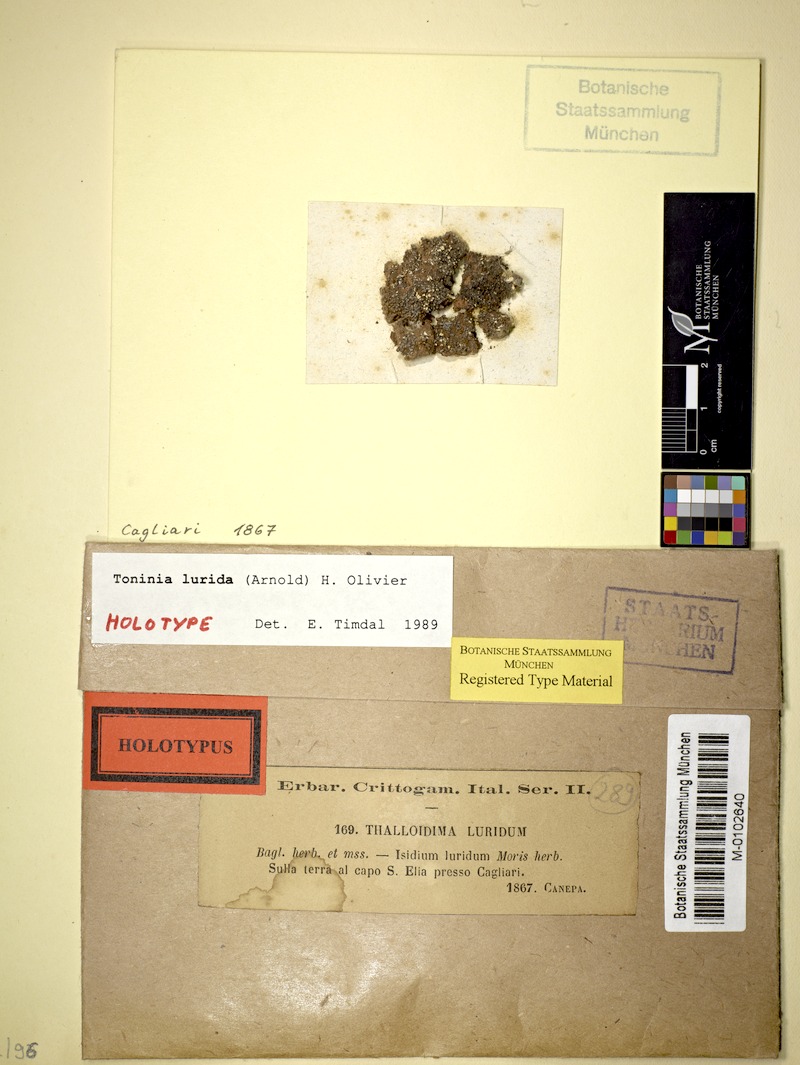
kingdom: Fungi
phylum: Ascomycota
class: Lecanoromycetes
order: Lecanorales
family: Ramalinaceae
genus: Thalloidima
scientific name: Thalloidima physaroides
